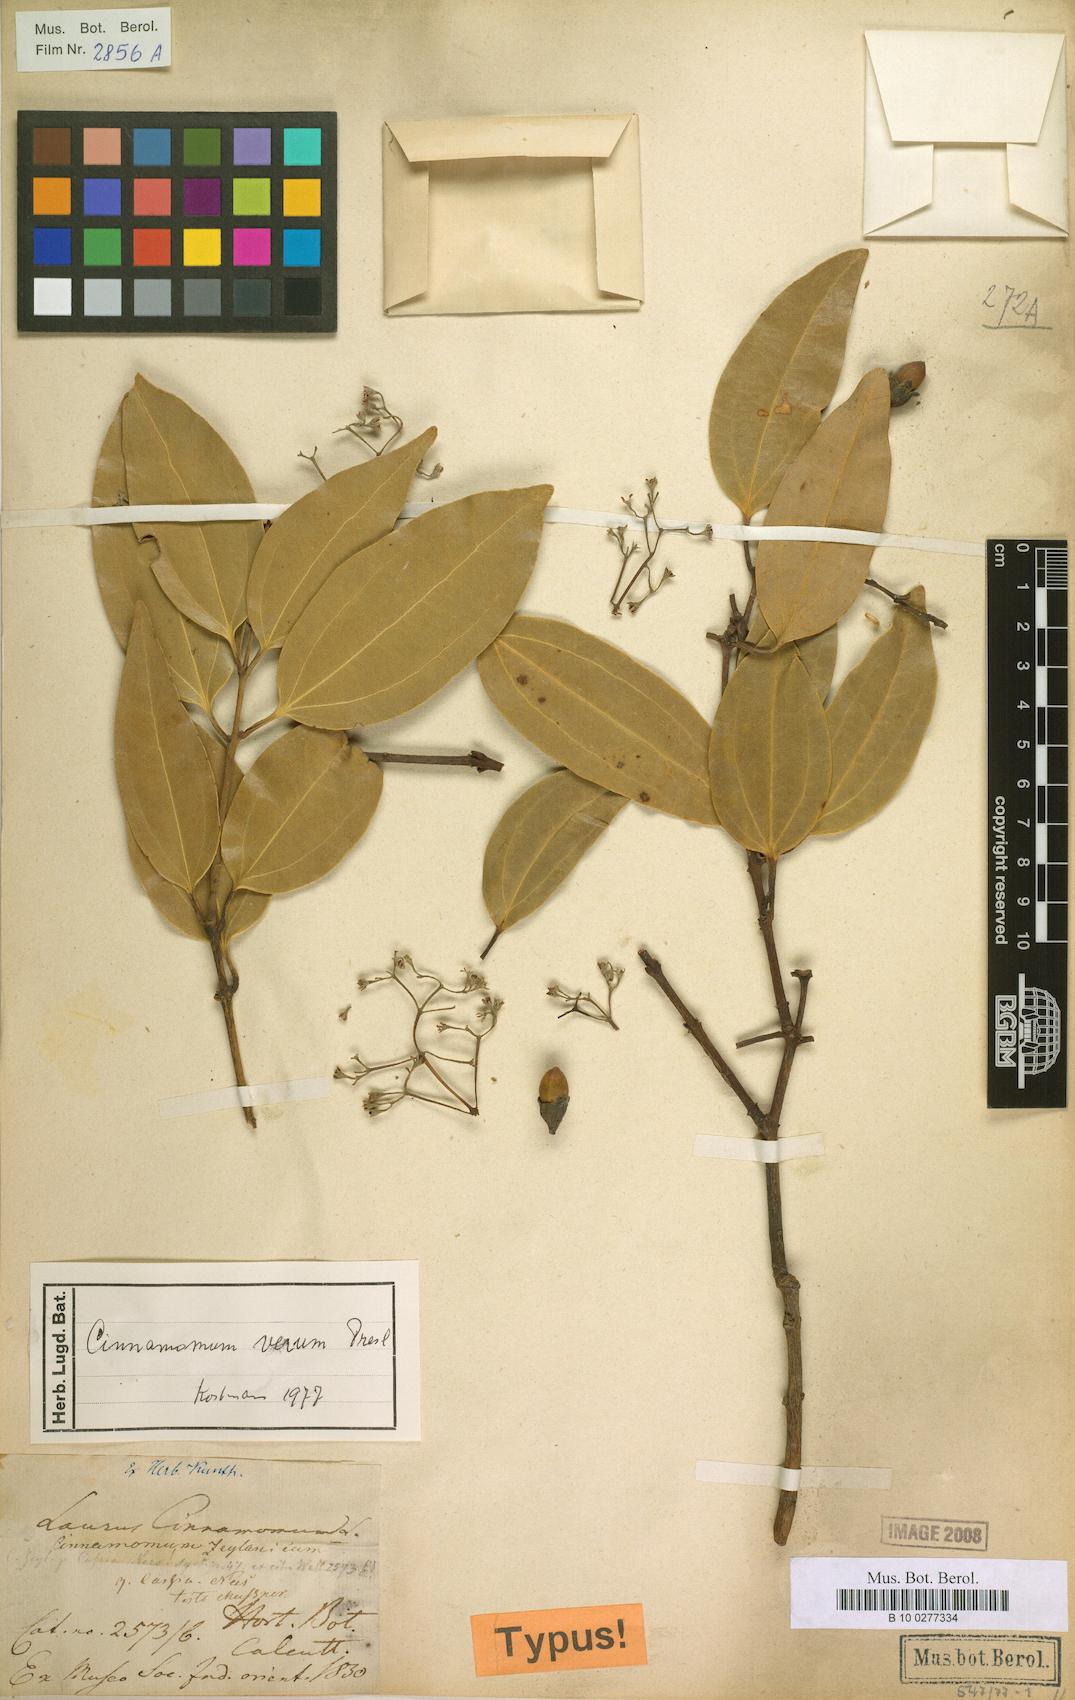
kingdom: Plantae
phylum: Tracheophyta
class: Magnoliopsida
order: Laurales
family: Lauraceae
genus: Cinnamomum
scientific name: Cinnamomum verum
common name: Cinnamon
